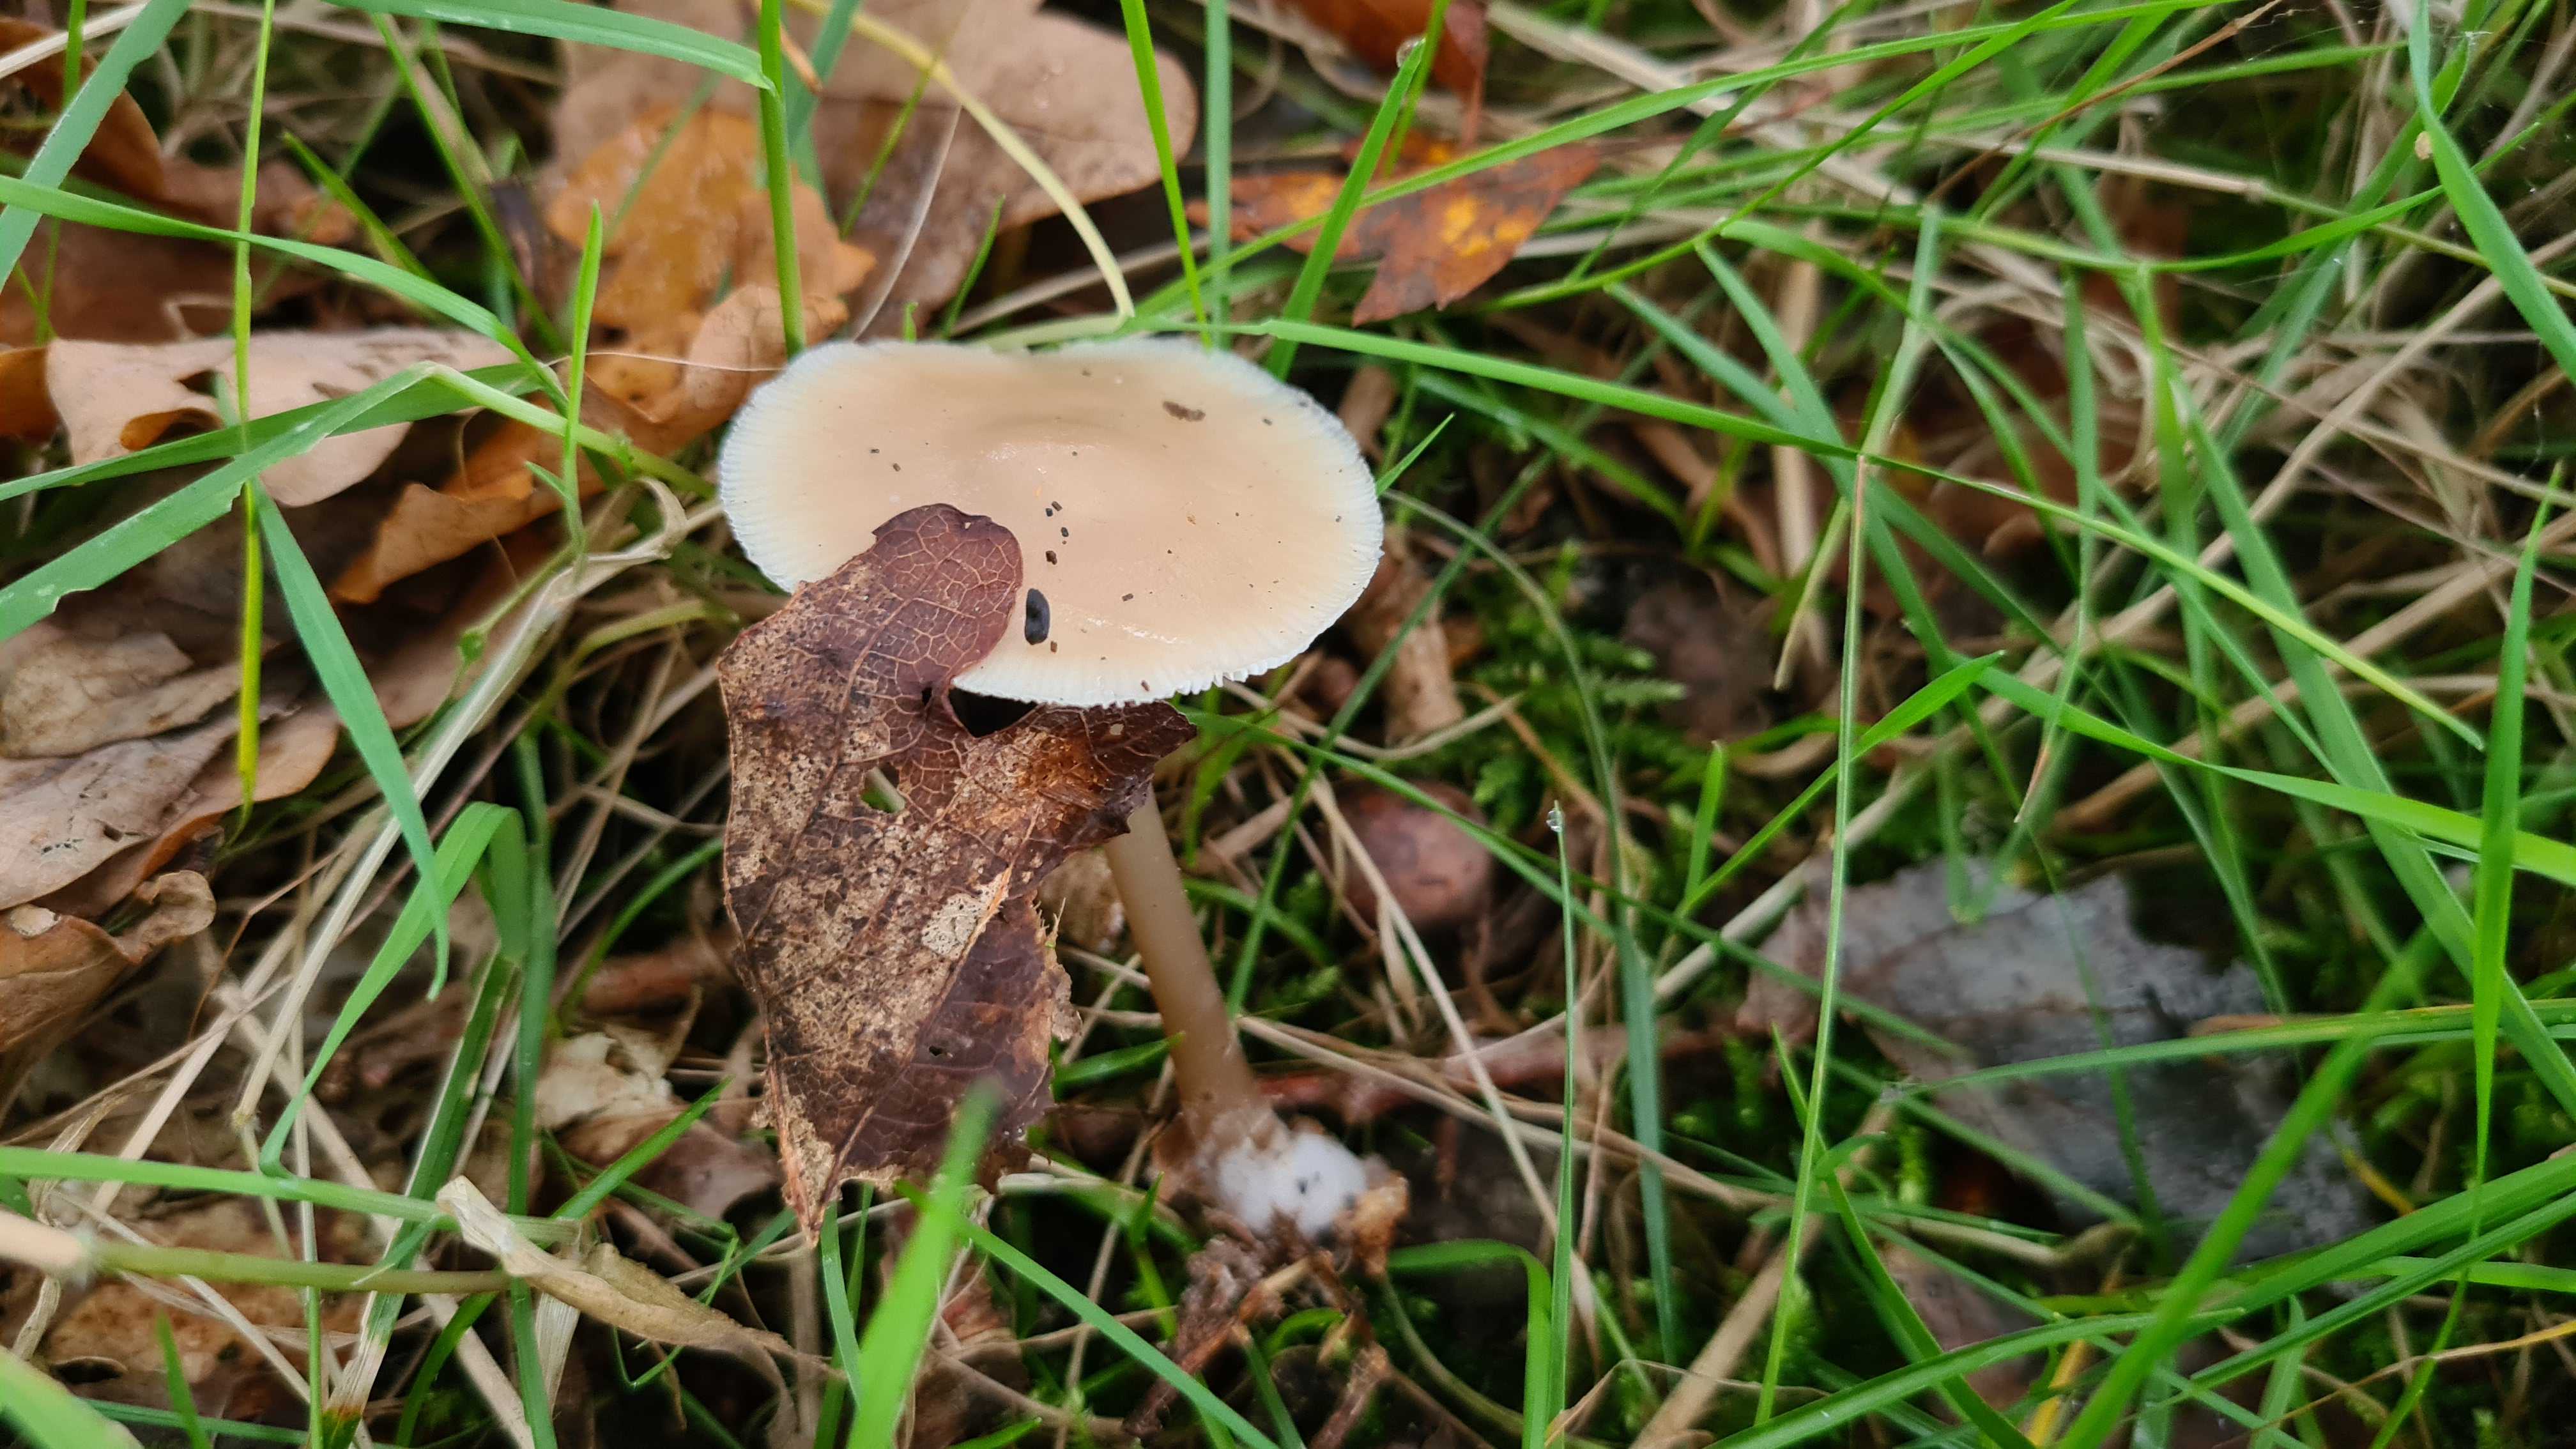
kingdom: Fungi
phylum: Basidiomycota
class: Agaricomycetes
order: Agaricales
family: Omphalotaceae
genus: Gymnopus
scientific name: Gymnopus dryophilus
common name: løv-fladhat
